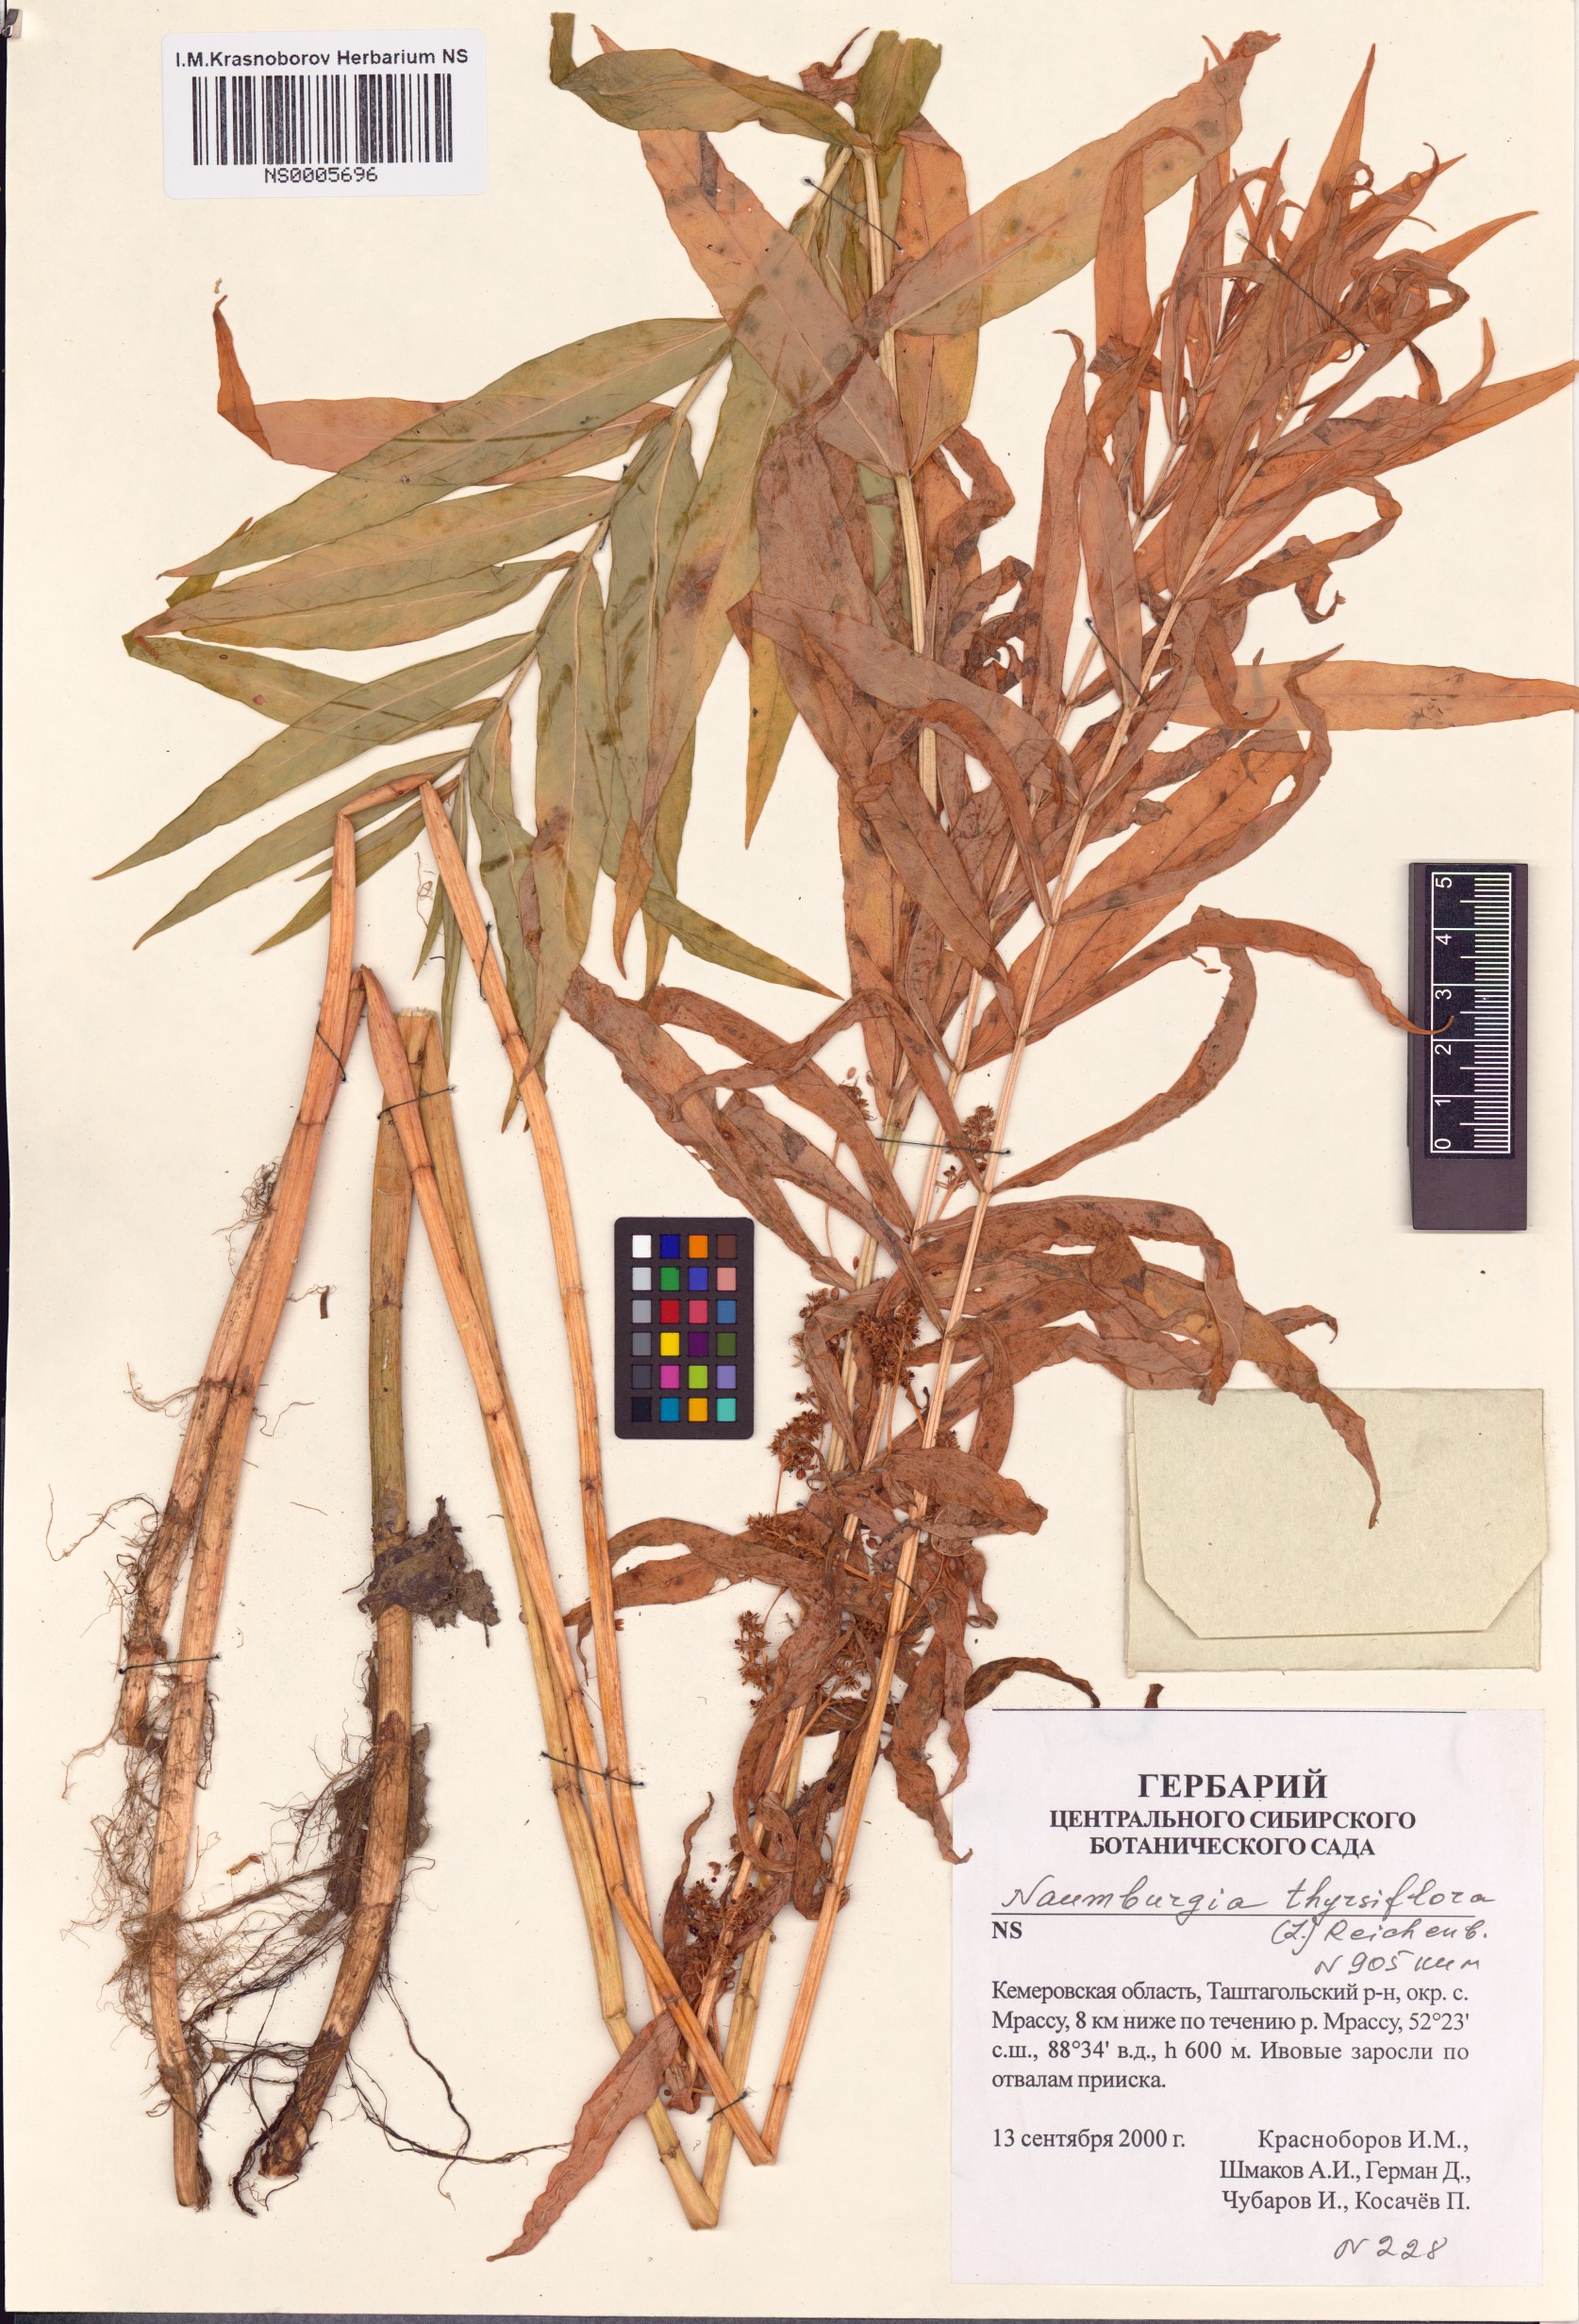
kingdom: Plantae
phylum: Tracheophyta
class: Magnoliopsida
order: Ericales
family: Primulaceae
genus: Lysimachia
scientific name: Lysimachia thyrsiflora
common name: Tufted loosestrife
